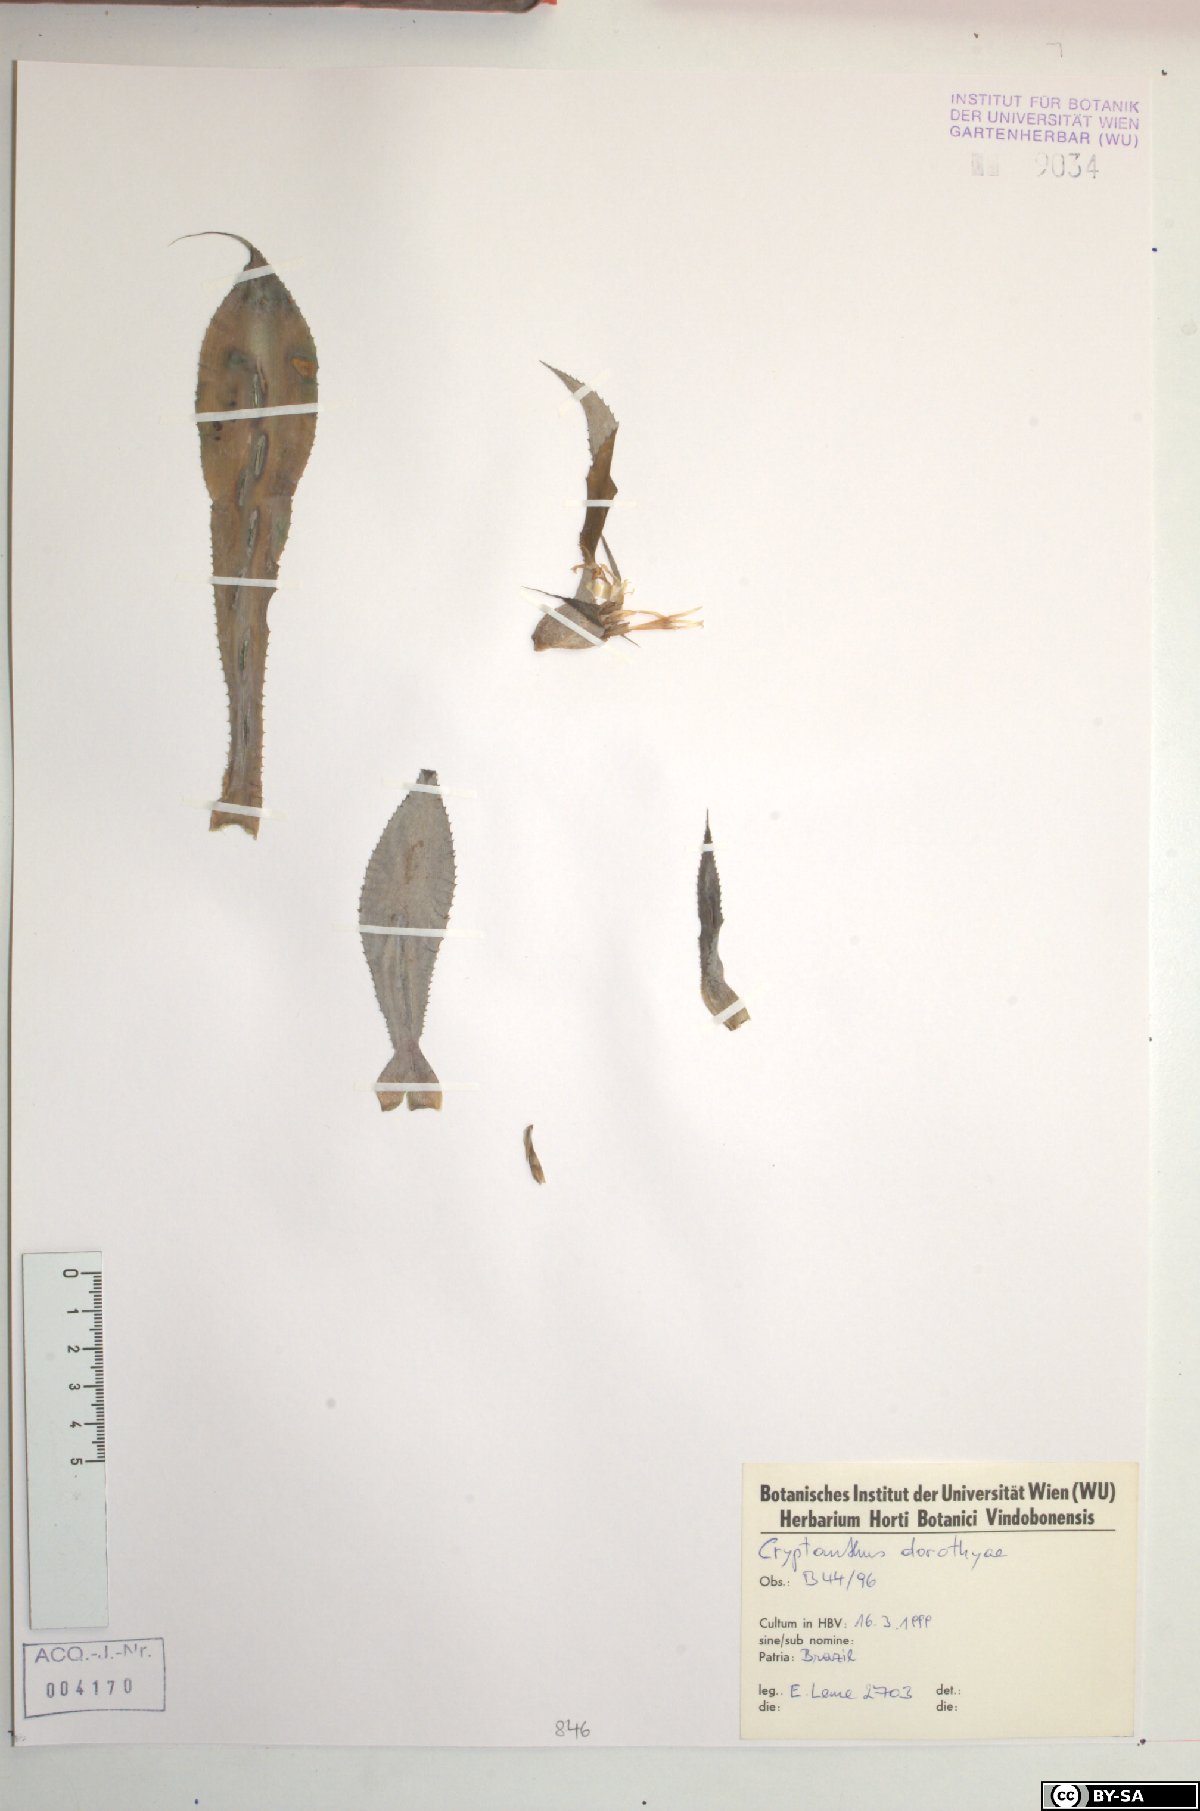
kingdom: Plantae
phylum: Tracheophyta
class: Liliopsida
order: Poales
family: Bromeliaceae
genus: Cryptanthus
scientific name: Cryptanthus dorothyae
